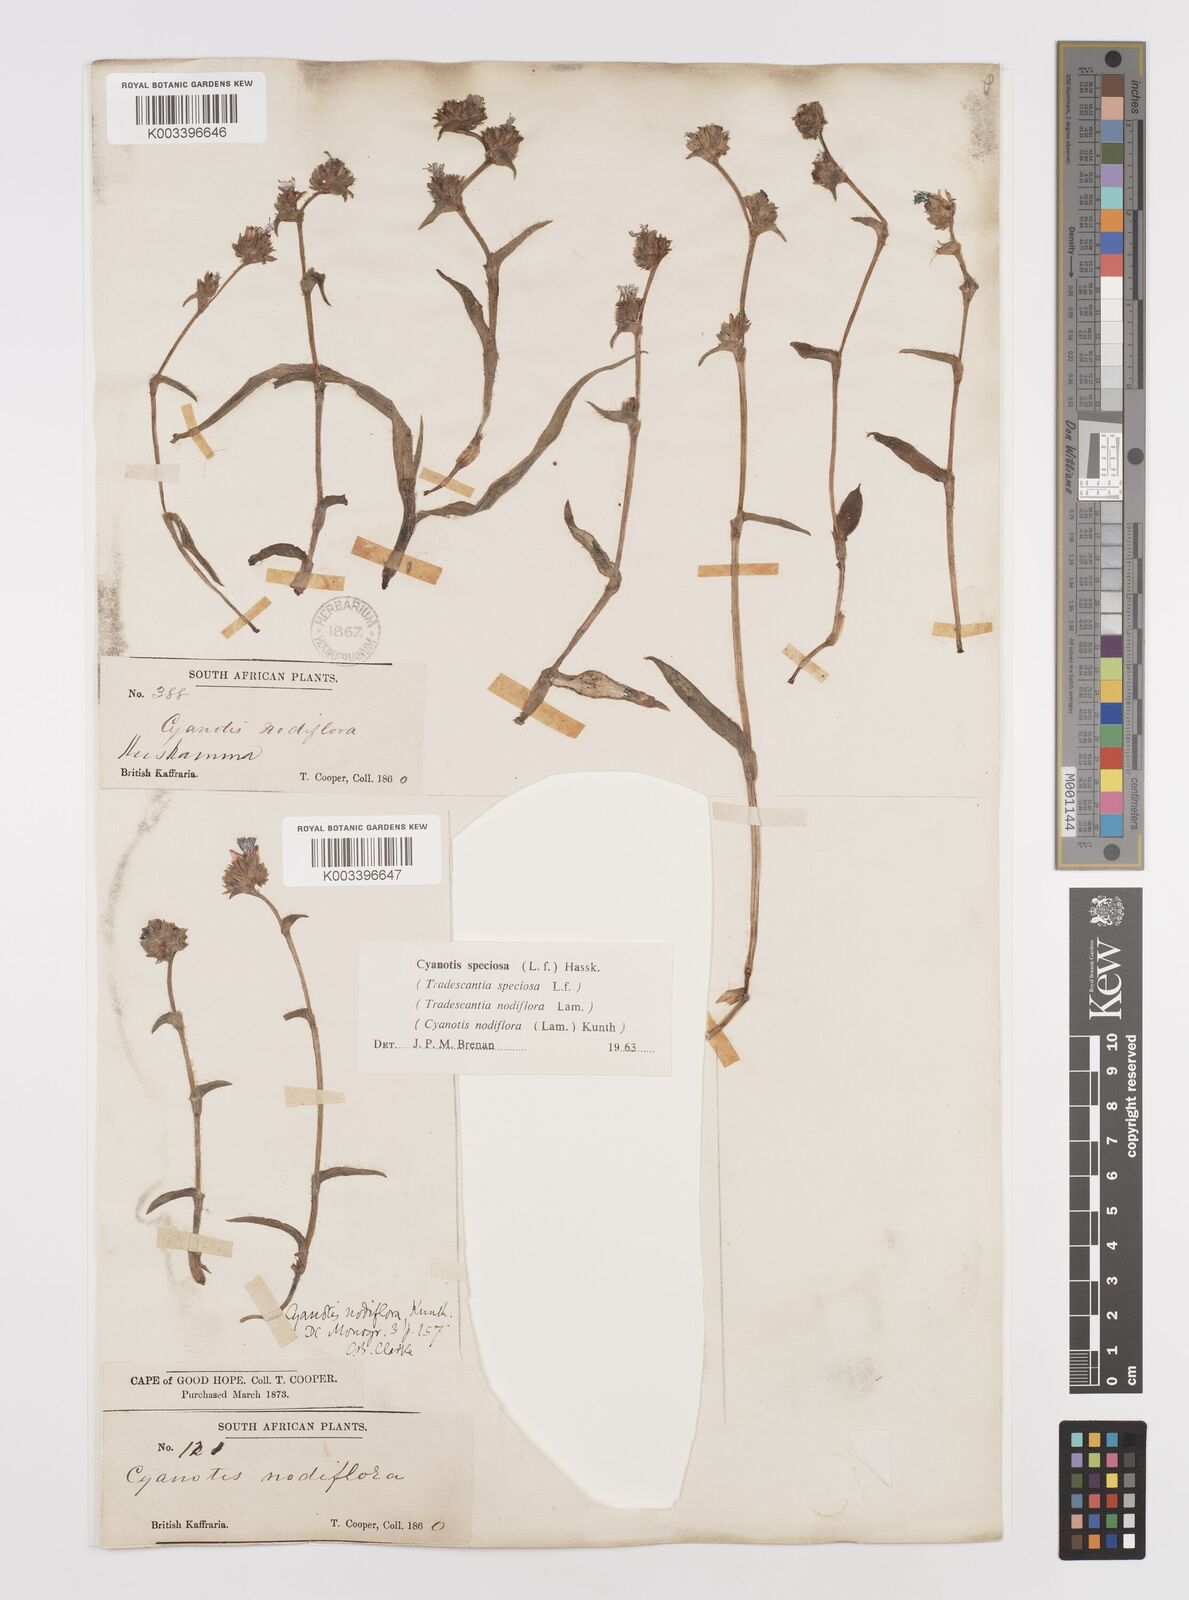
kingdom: Plantae
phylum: Tracheophyta
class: Liliopsida
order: Commelinales
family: Commelinaceae
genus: Cyanotis
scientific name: Cyanotis speciosa
